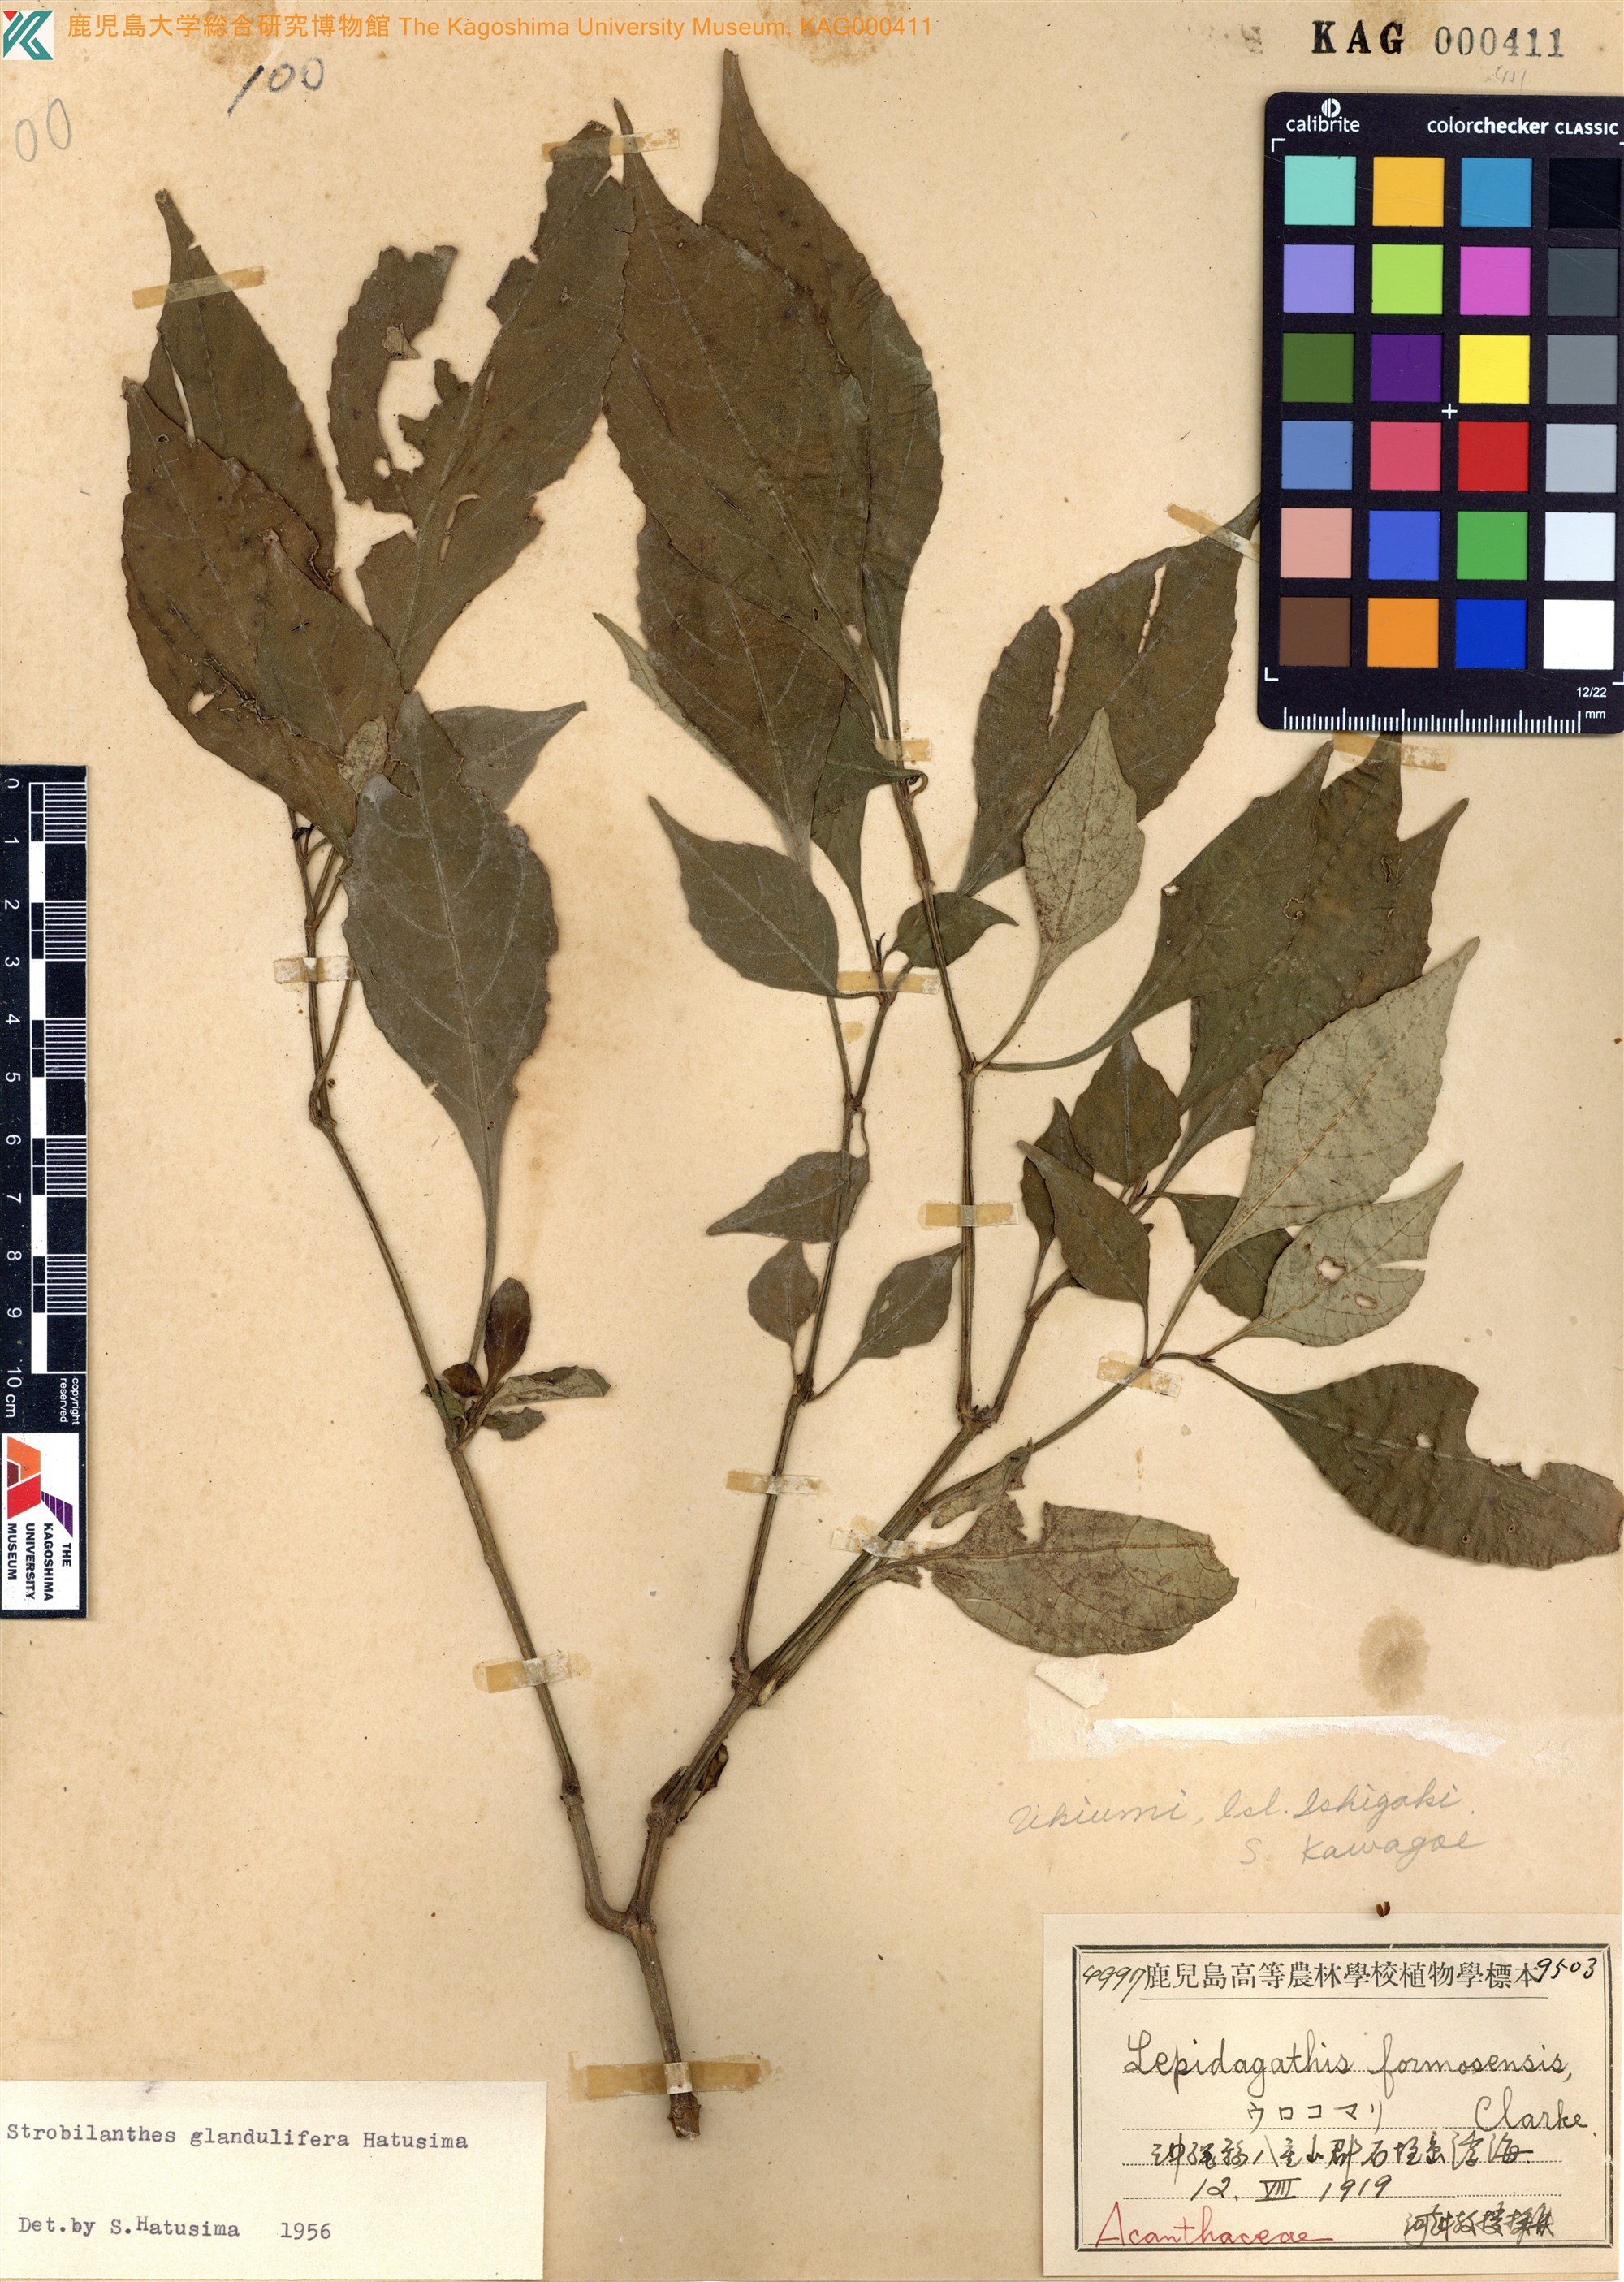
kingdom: Plantae
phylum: Tracheophyta
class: Magnoliopsida
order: Lamiales
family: Acanthaceae
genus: Strobilanthes
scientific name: Strobilanthes flexicaulis
